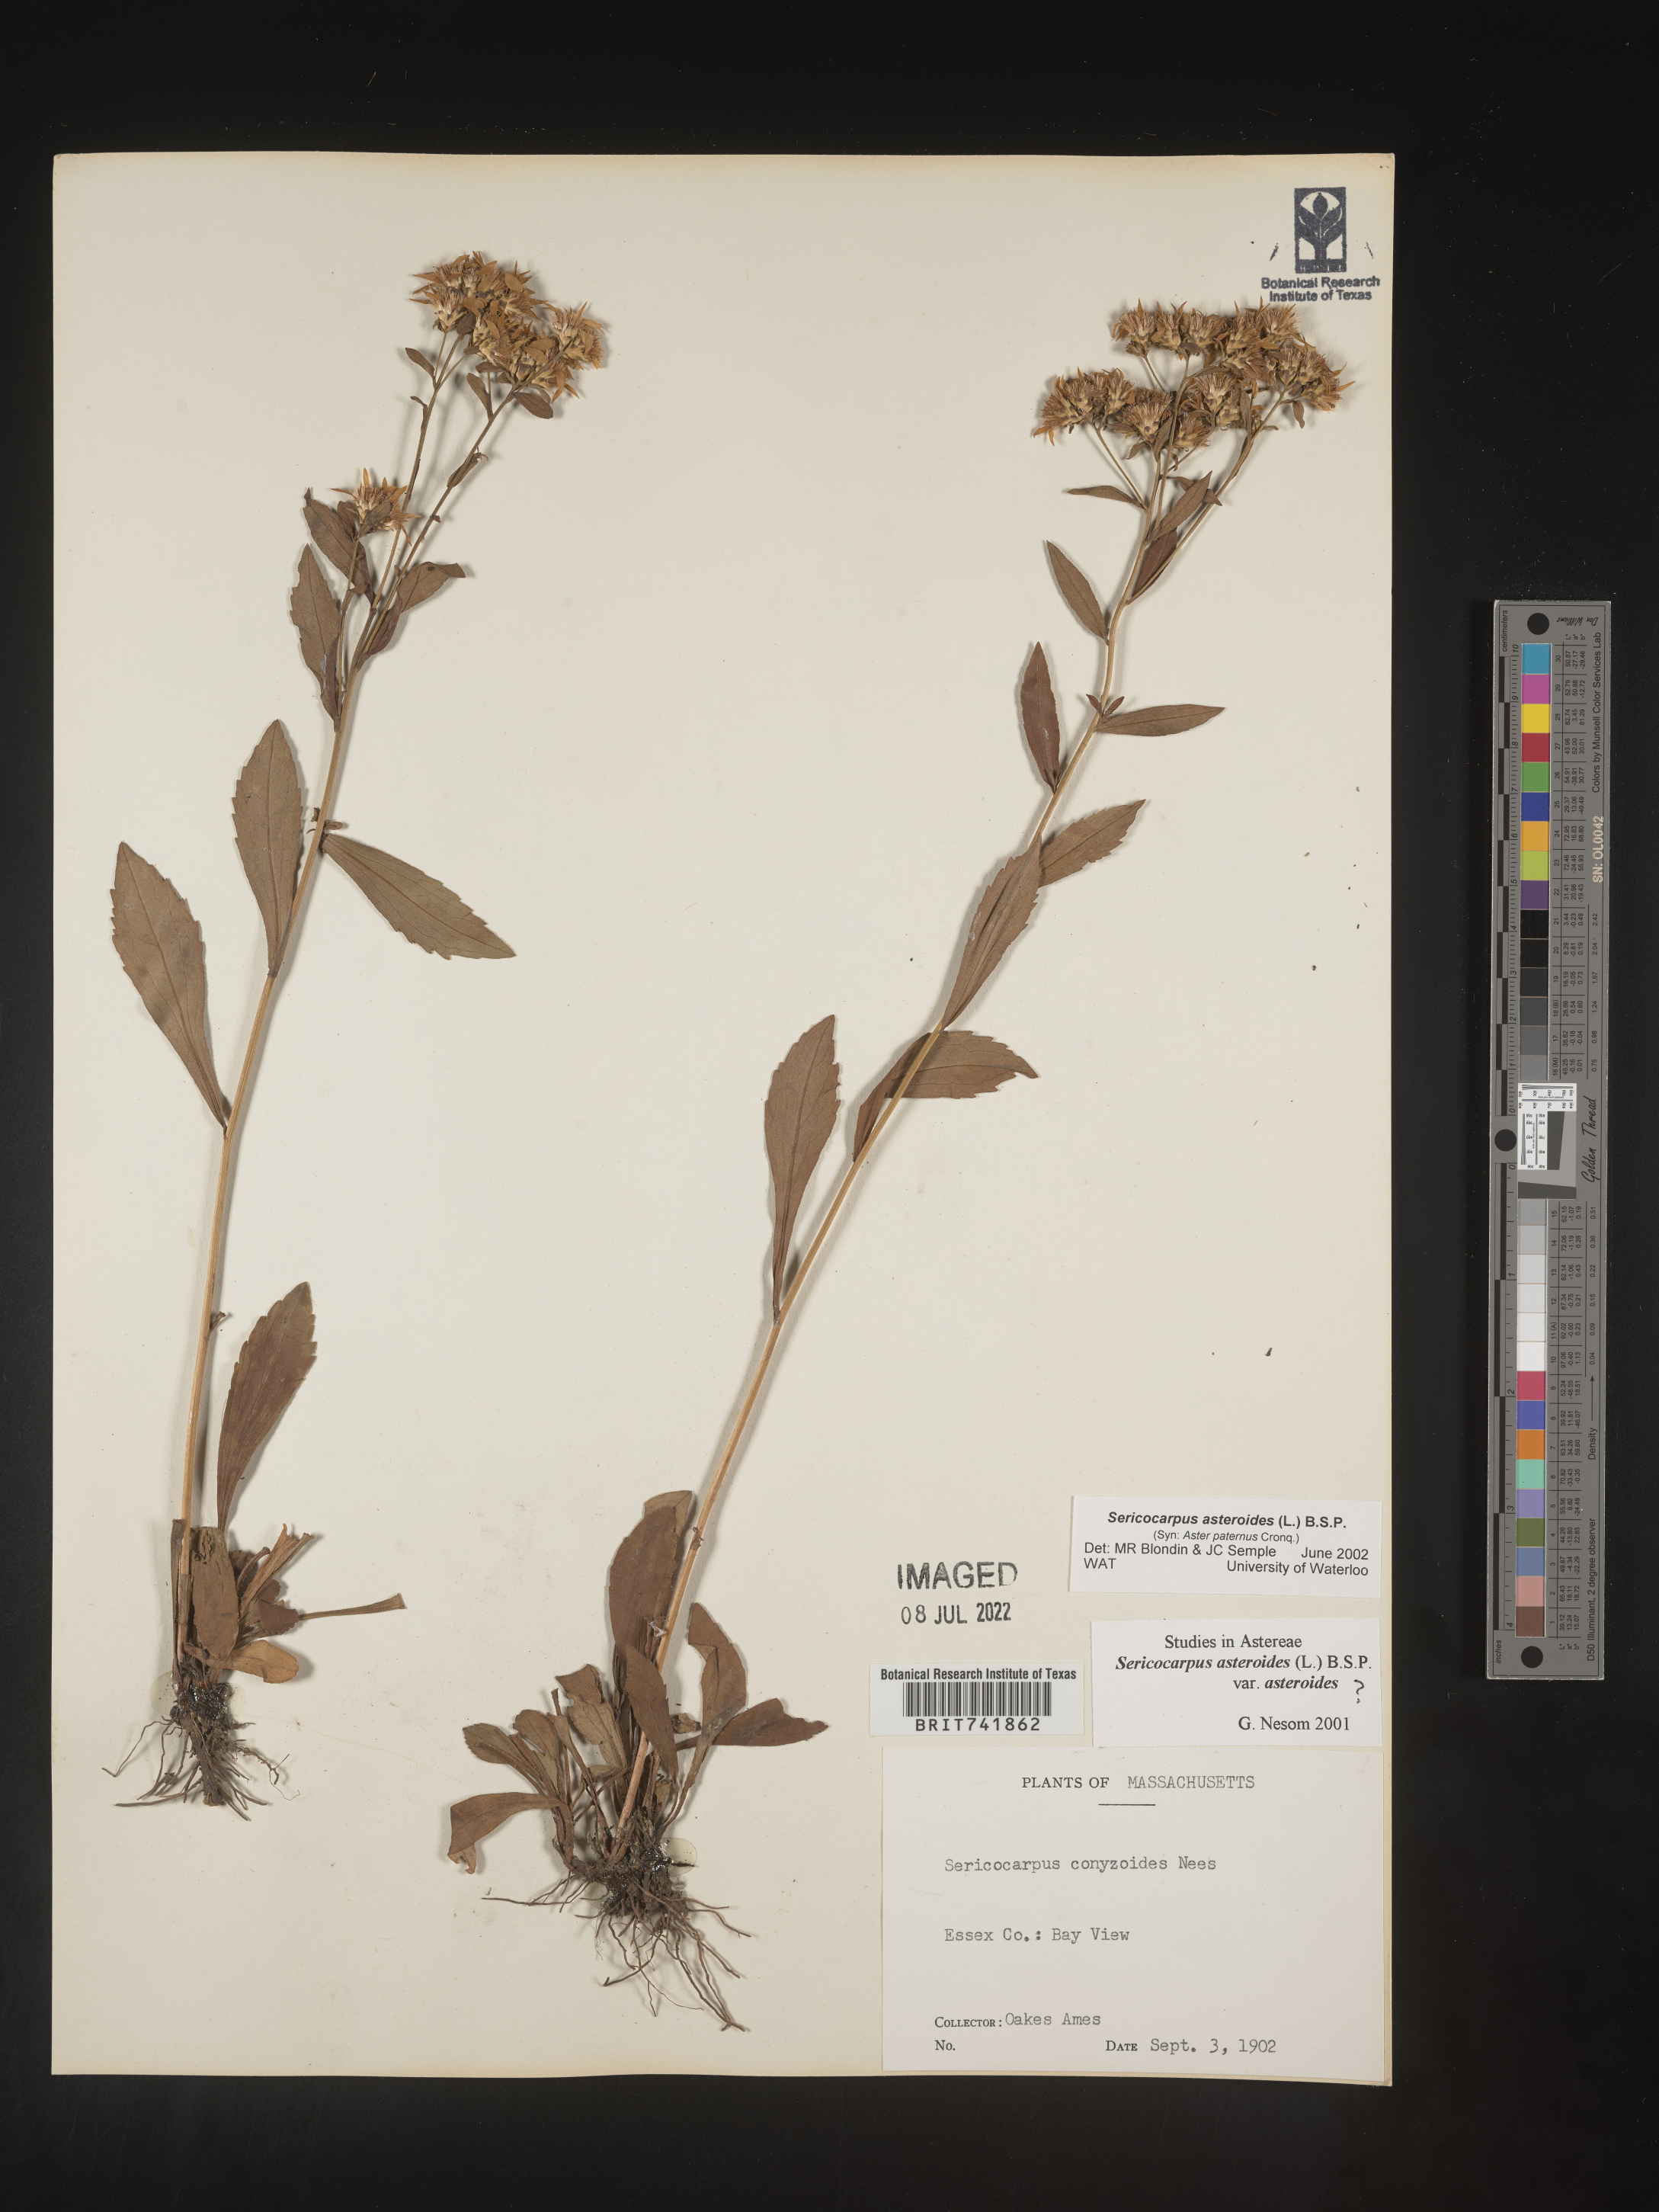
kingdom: Plantae
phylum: Tracheophyta
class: Magnoliopsida
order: Asterales
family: Asteraceae
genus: Sericocarpus
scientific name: Sericocarpus asteroides
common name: Toothed white-top aster
